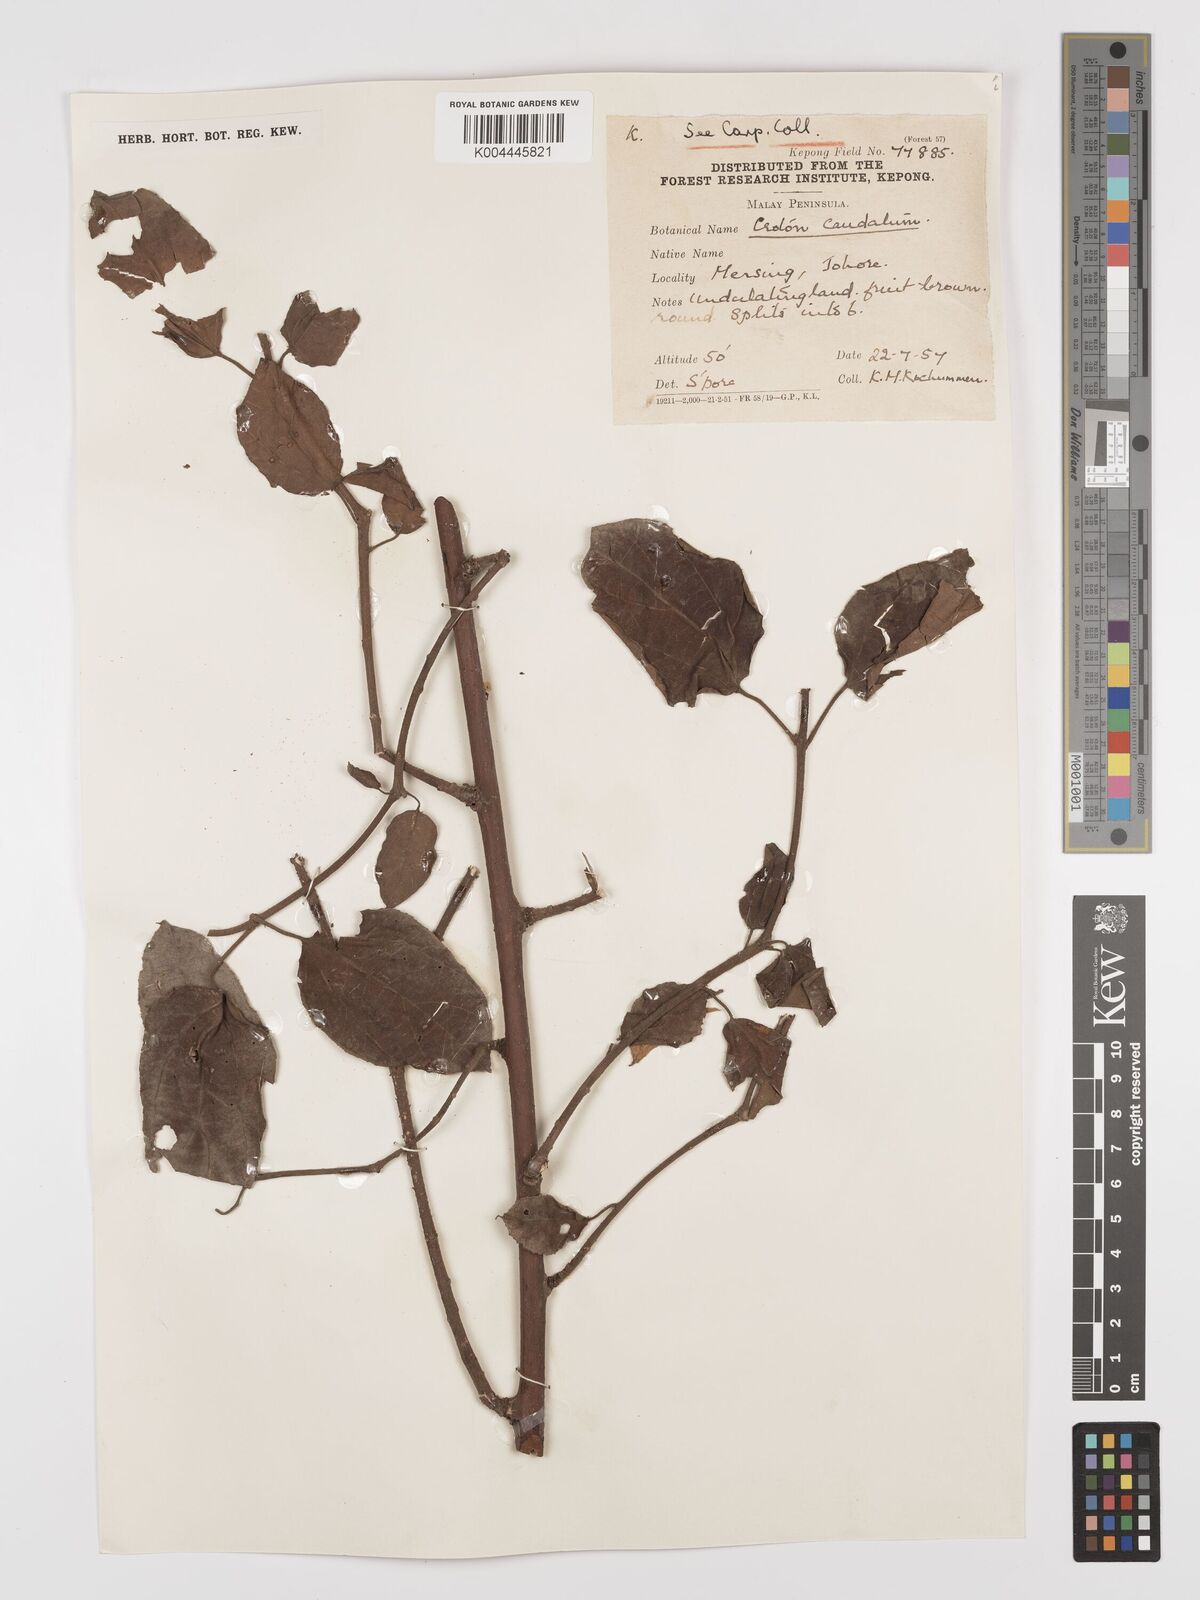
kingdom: Plantae
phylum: Tracheophyta
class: Magnoliopsida
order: Malpighiales
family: Euphorbiaceae
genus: Croton
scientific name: Croton caudatus
